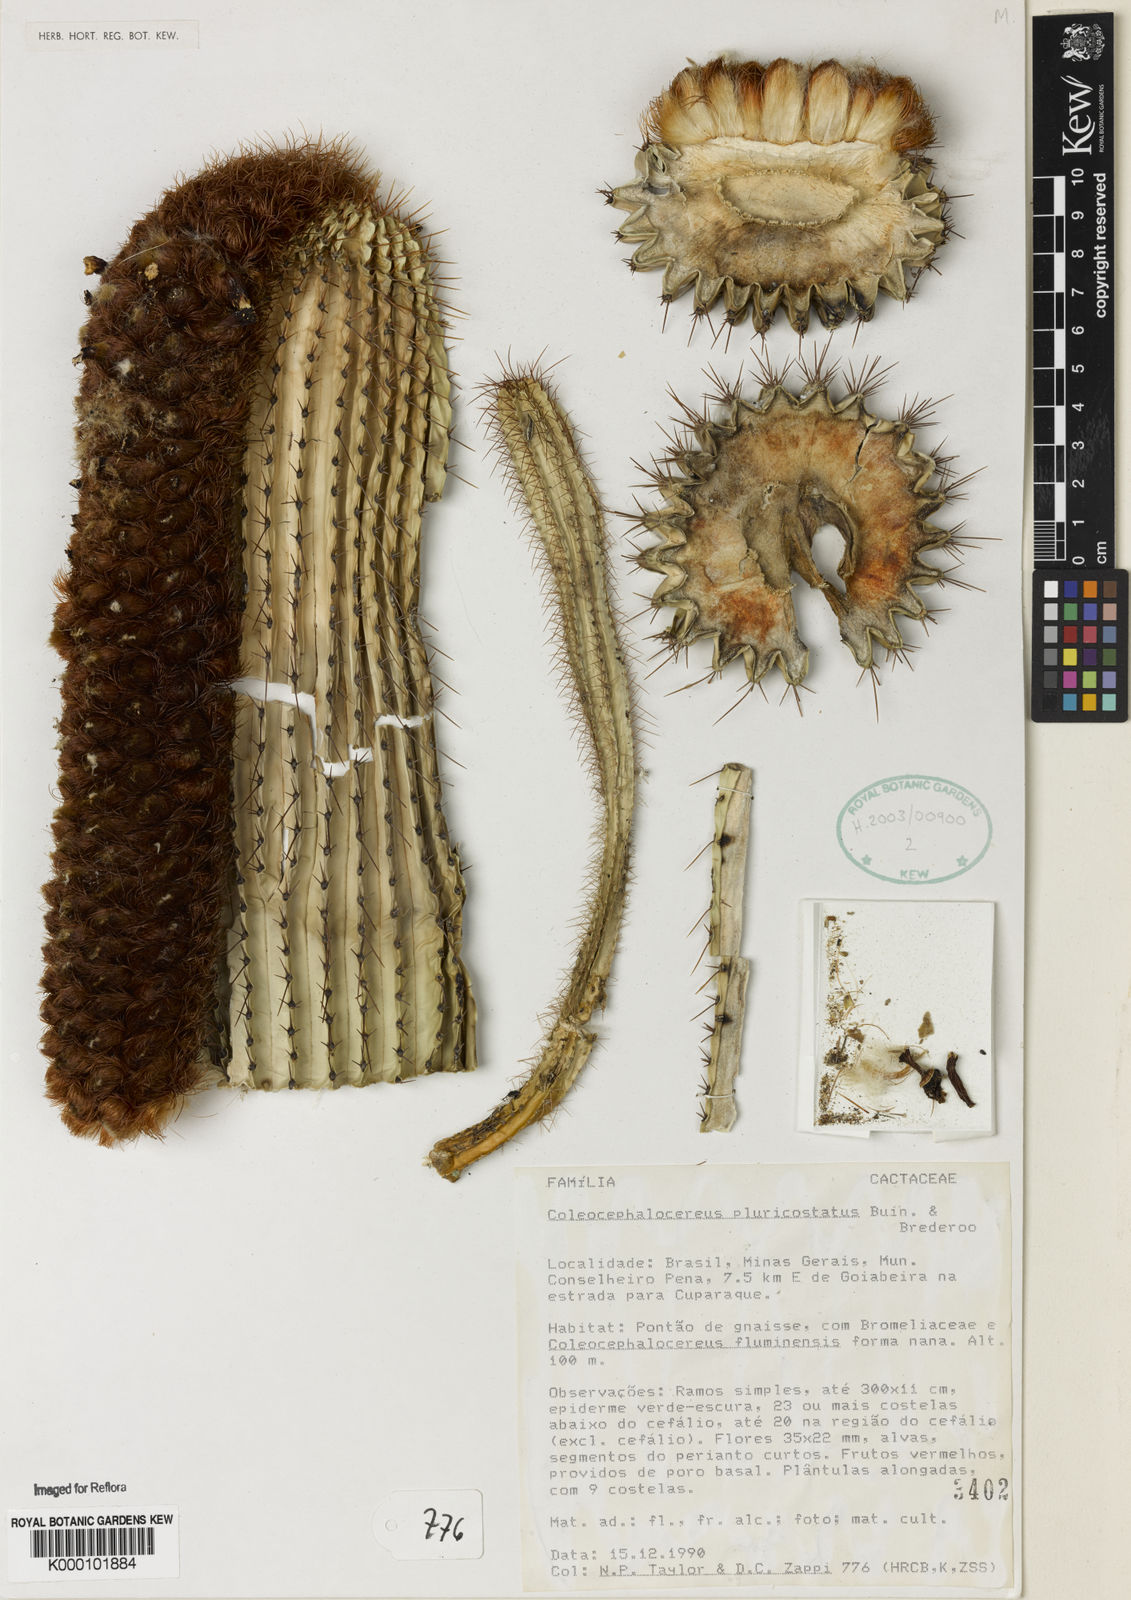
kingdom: Plantae
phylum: Tracheophyta
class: Magnoliopsida
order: Caryophyllales
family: Cactaceae
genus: Coleocephalocereus
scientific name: Coleocephalocereus pluricostatus
